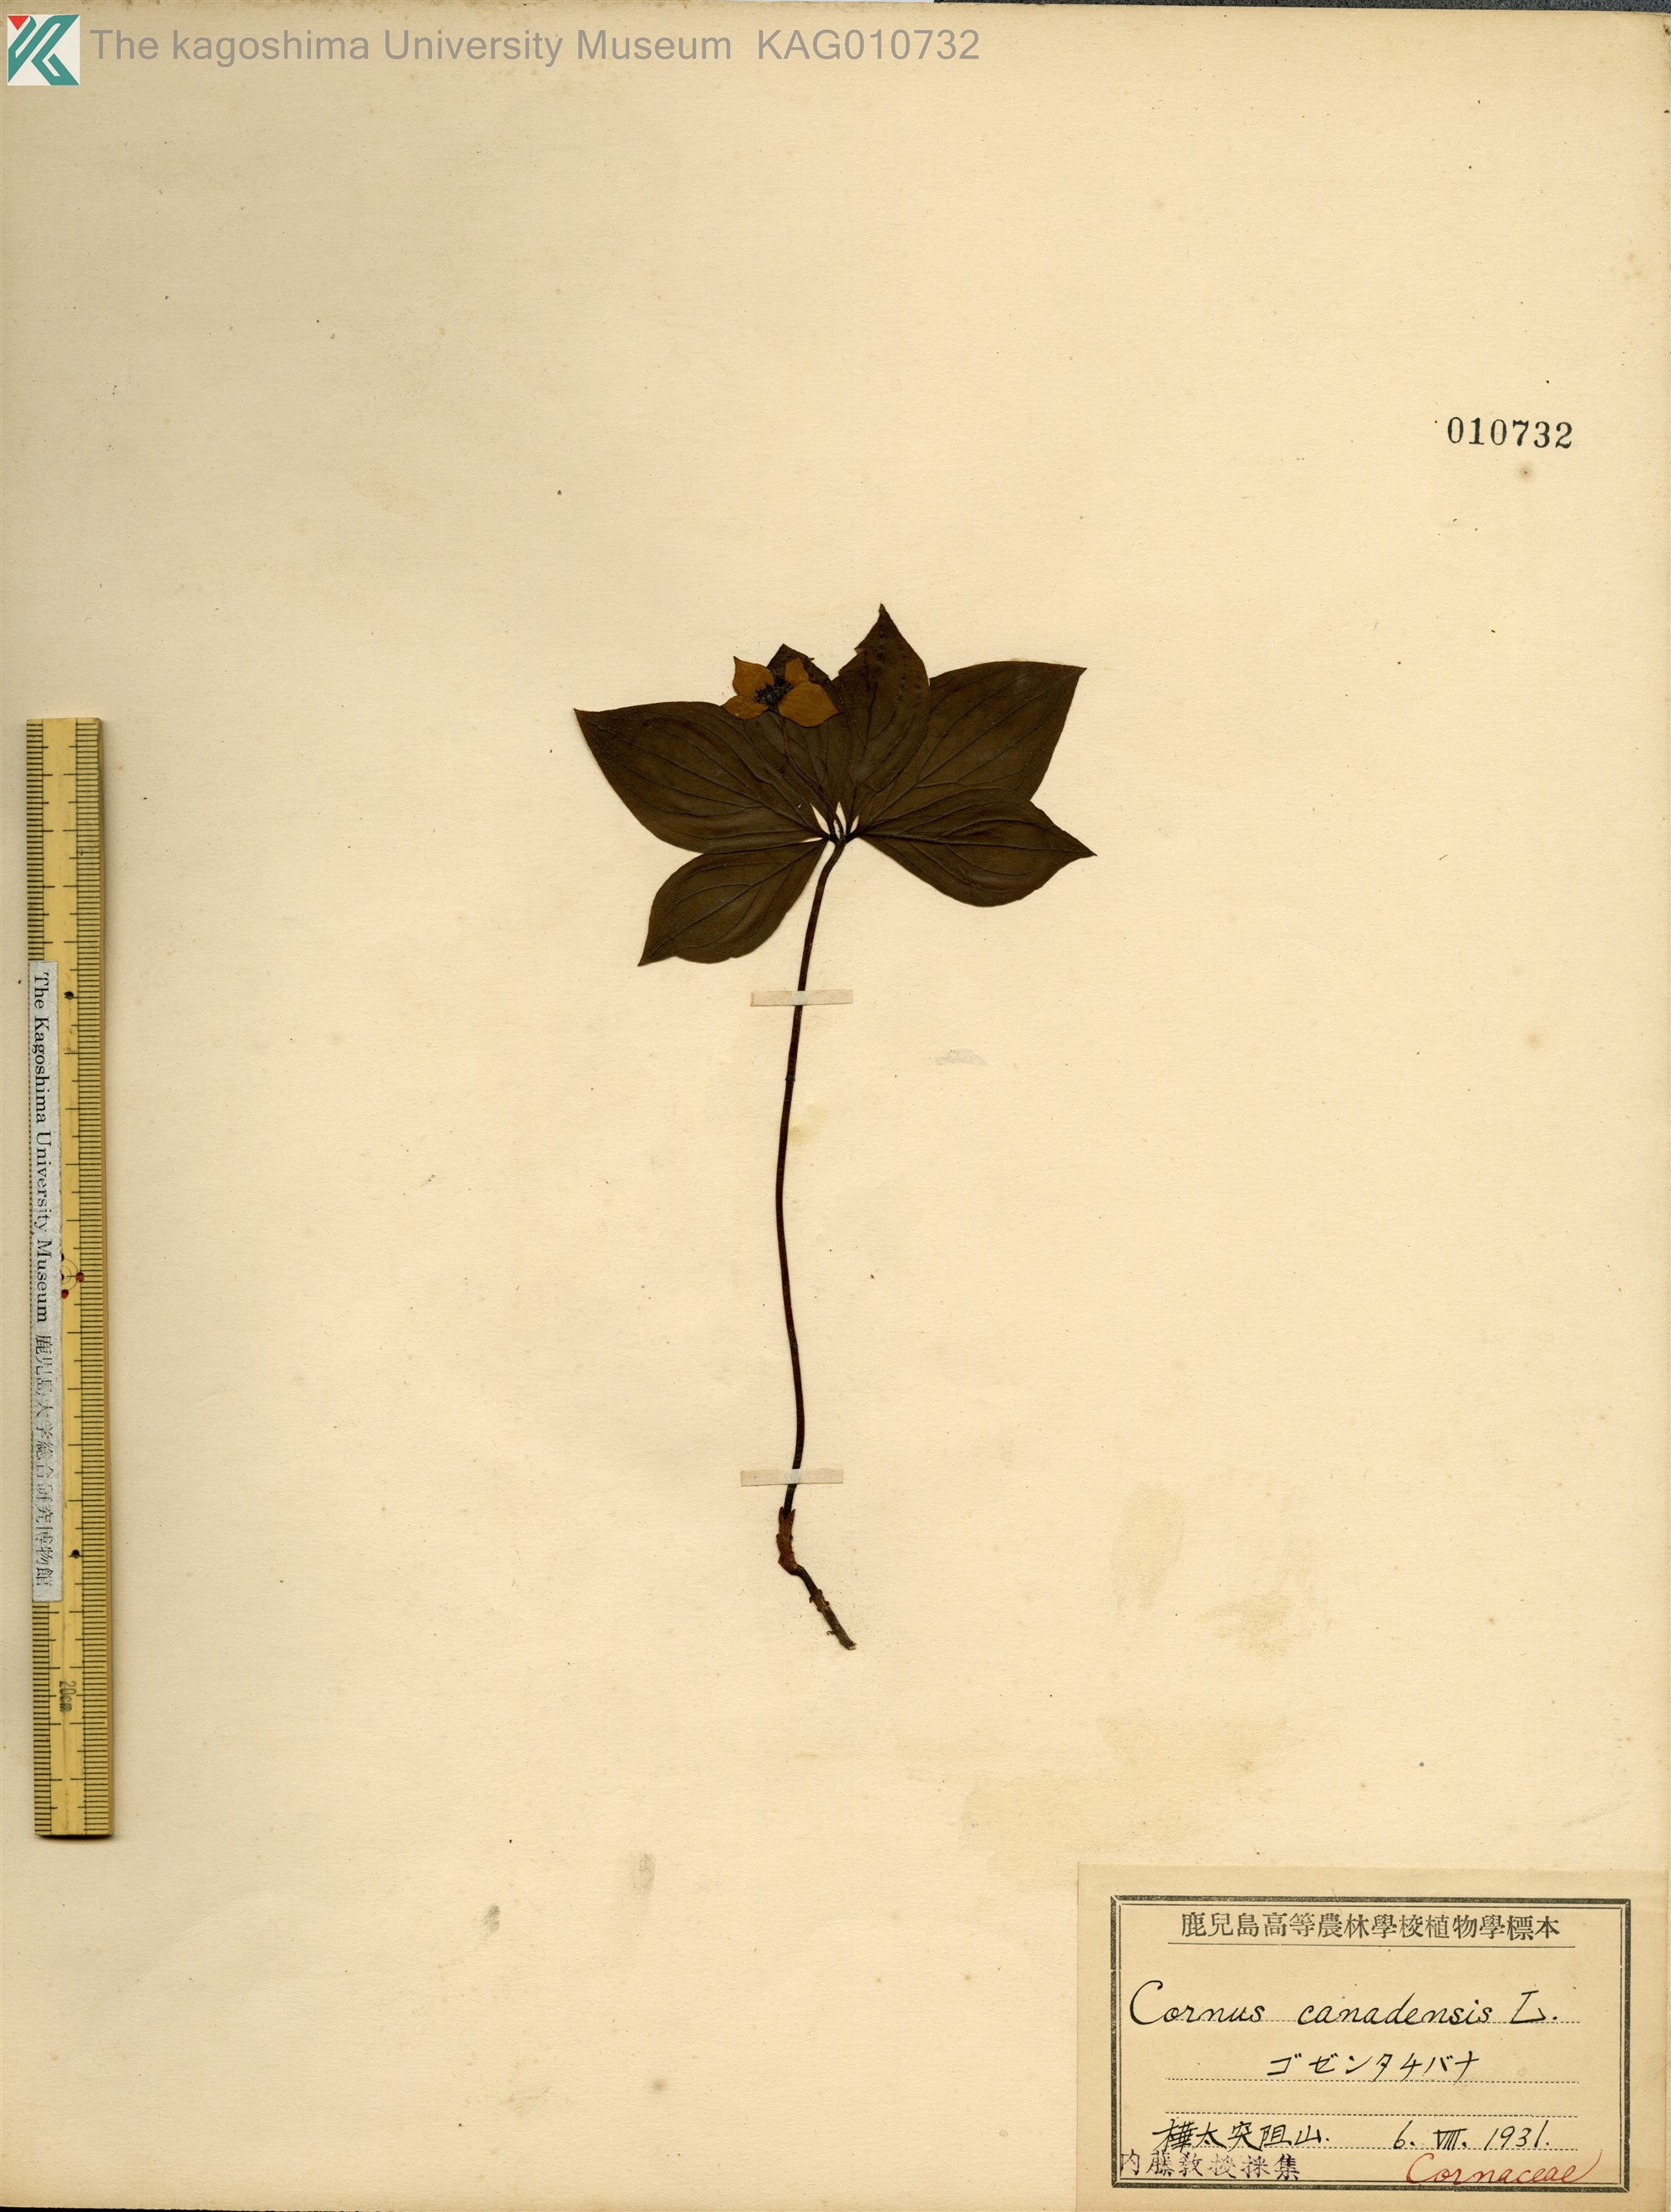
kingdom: Plantae
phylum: Tracheophyta
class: Magnoliopsida
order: Cornales
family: Cornaceae
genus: Cornus
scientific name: Cornus canadensis
